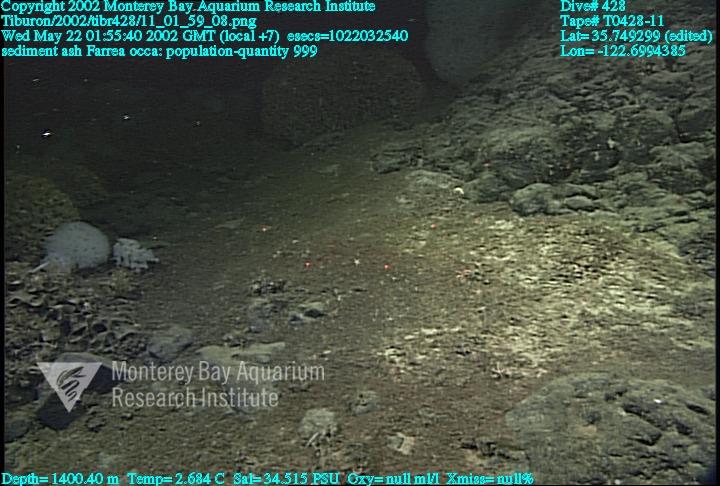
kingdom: Animalia
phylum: Porifera
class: Hexactinellida
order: Sceptrulophora
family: Farreidae
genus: Farrea
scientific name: Farrea occa
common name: Reversed glass sponge
